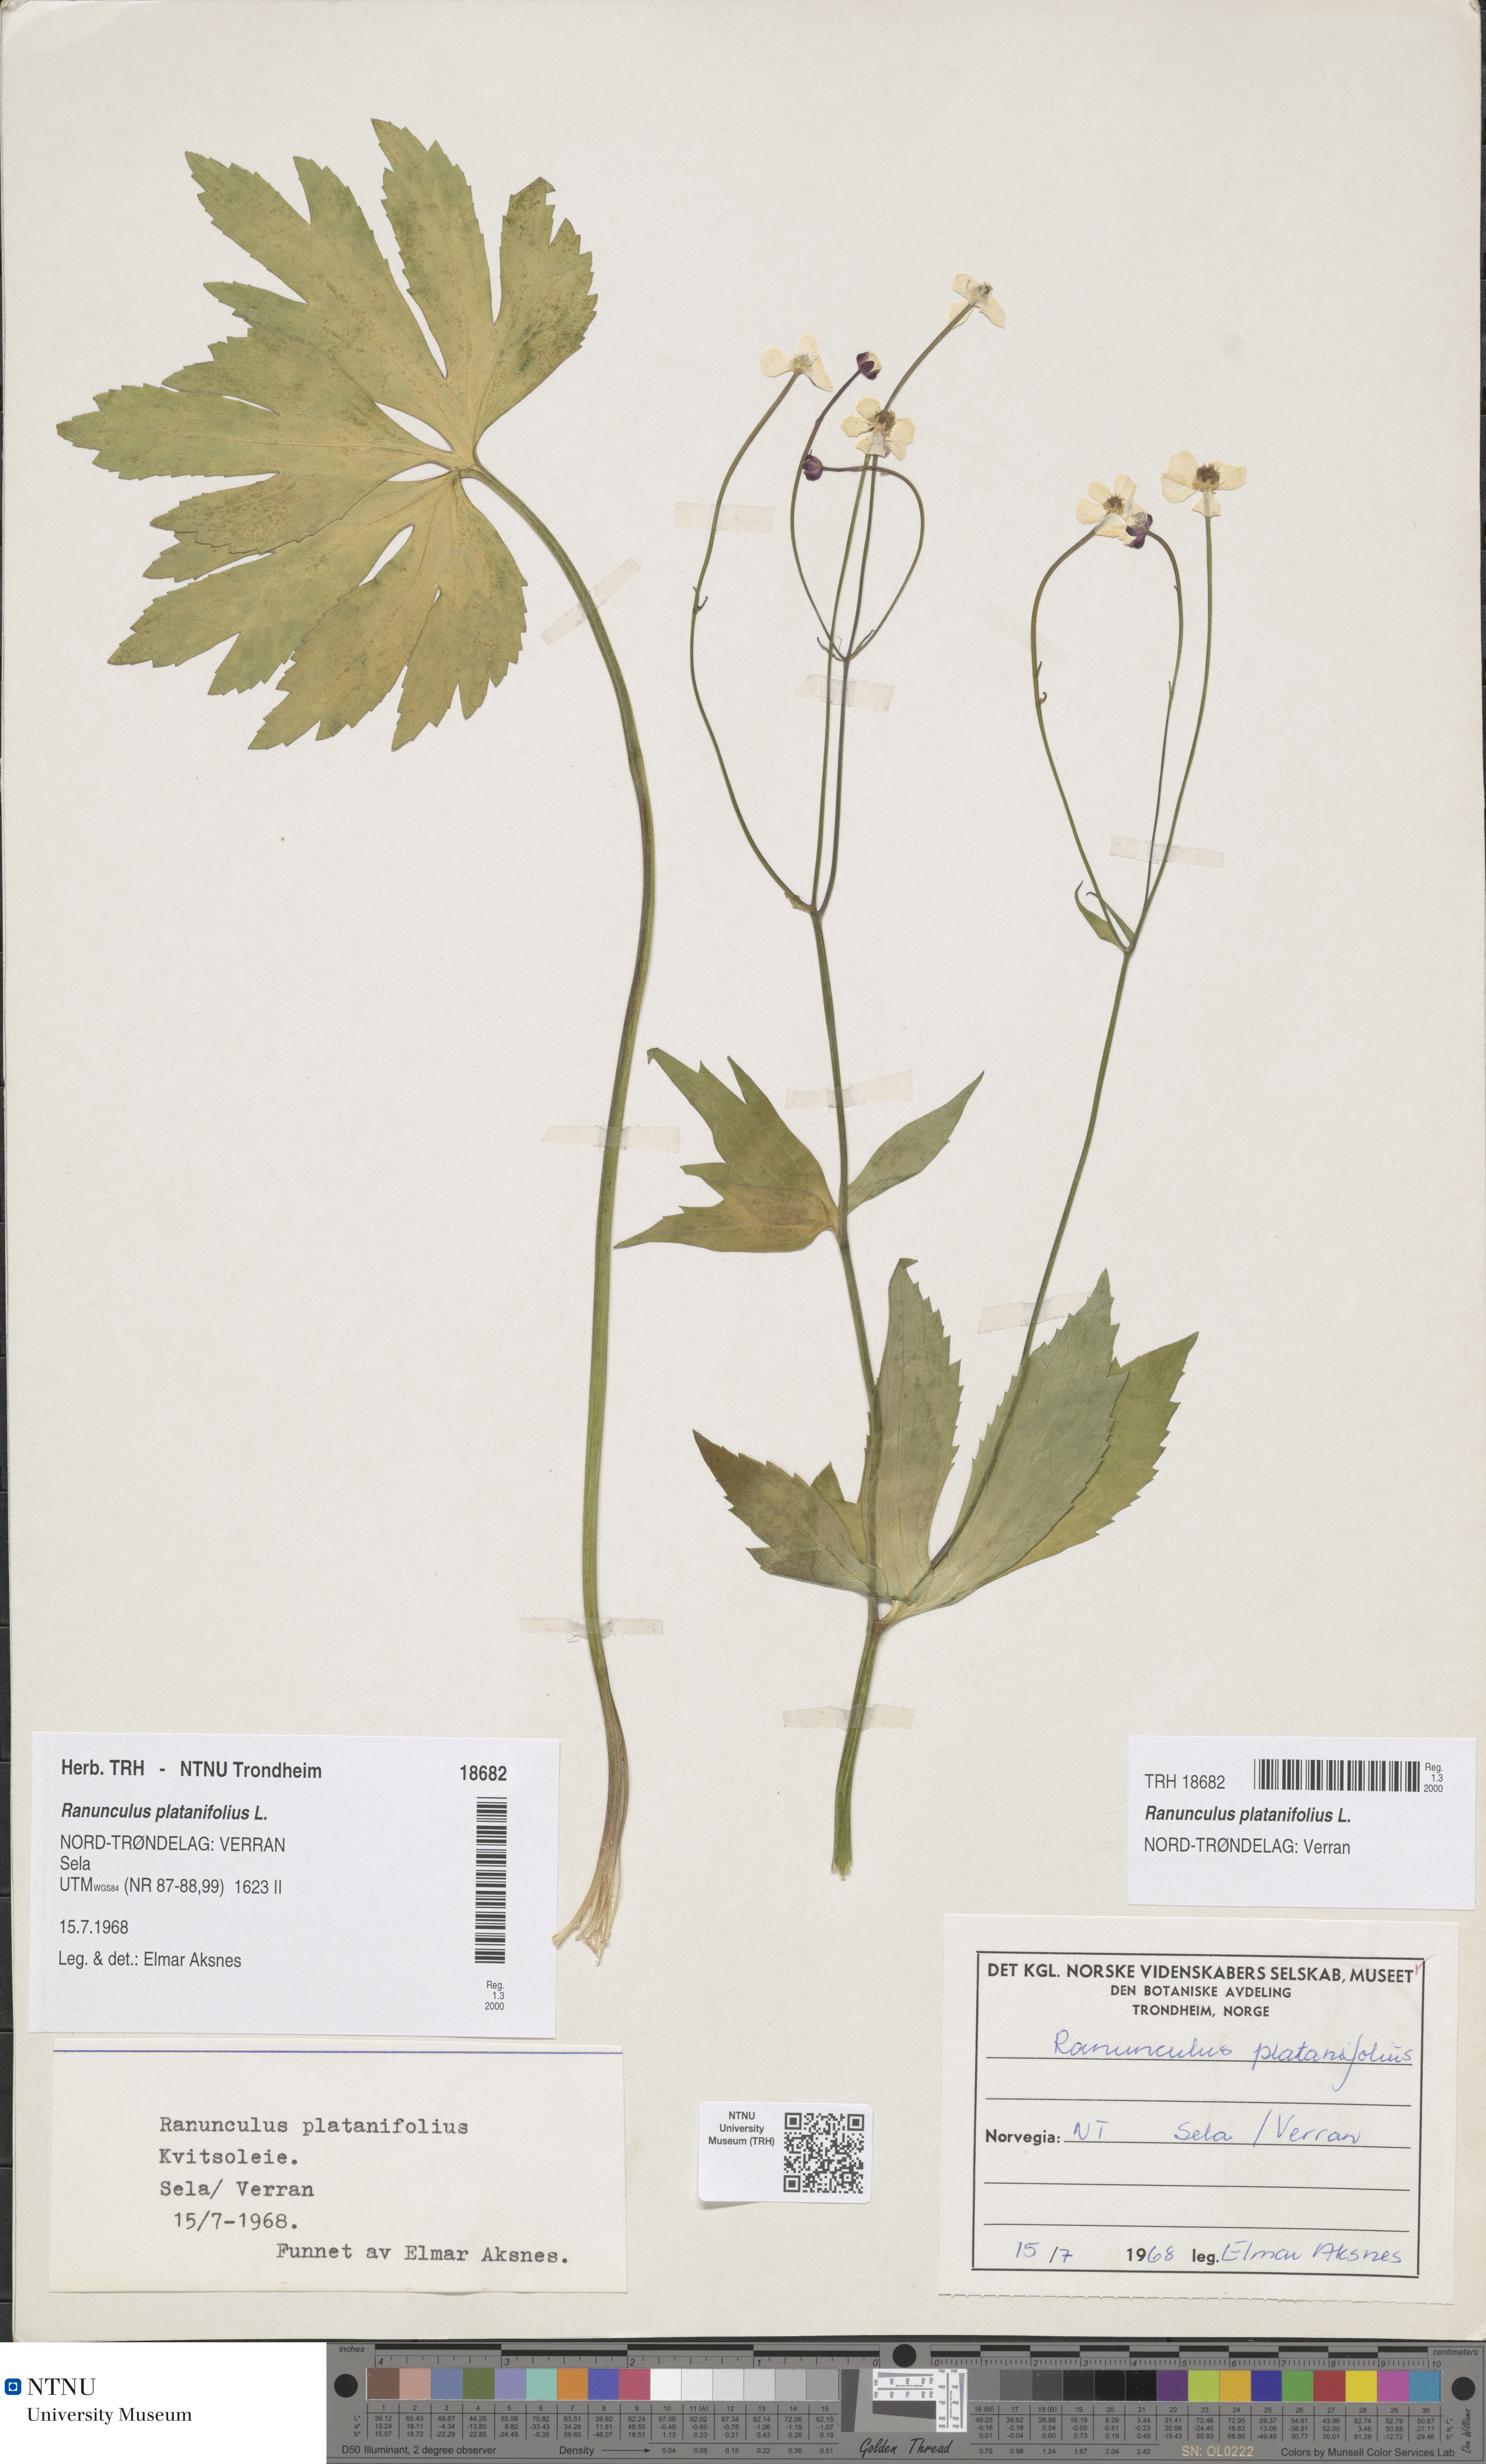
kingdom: Plantae
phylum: Tracheophyta
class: Magnoliopsida
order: Ranunculales
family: Ranunculaceae
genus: Ranunculus
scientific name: Ranunculus platanifolius
